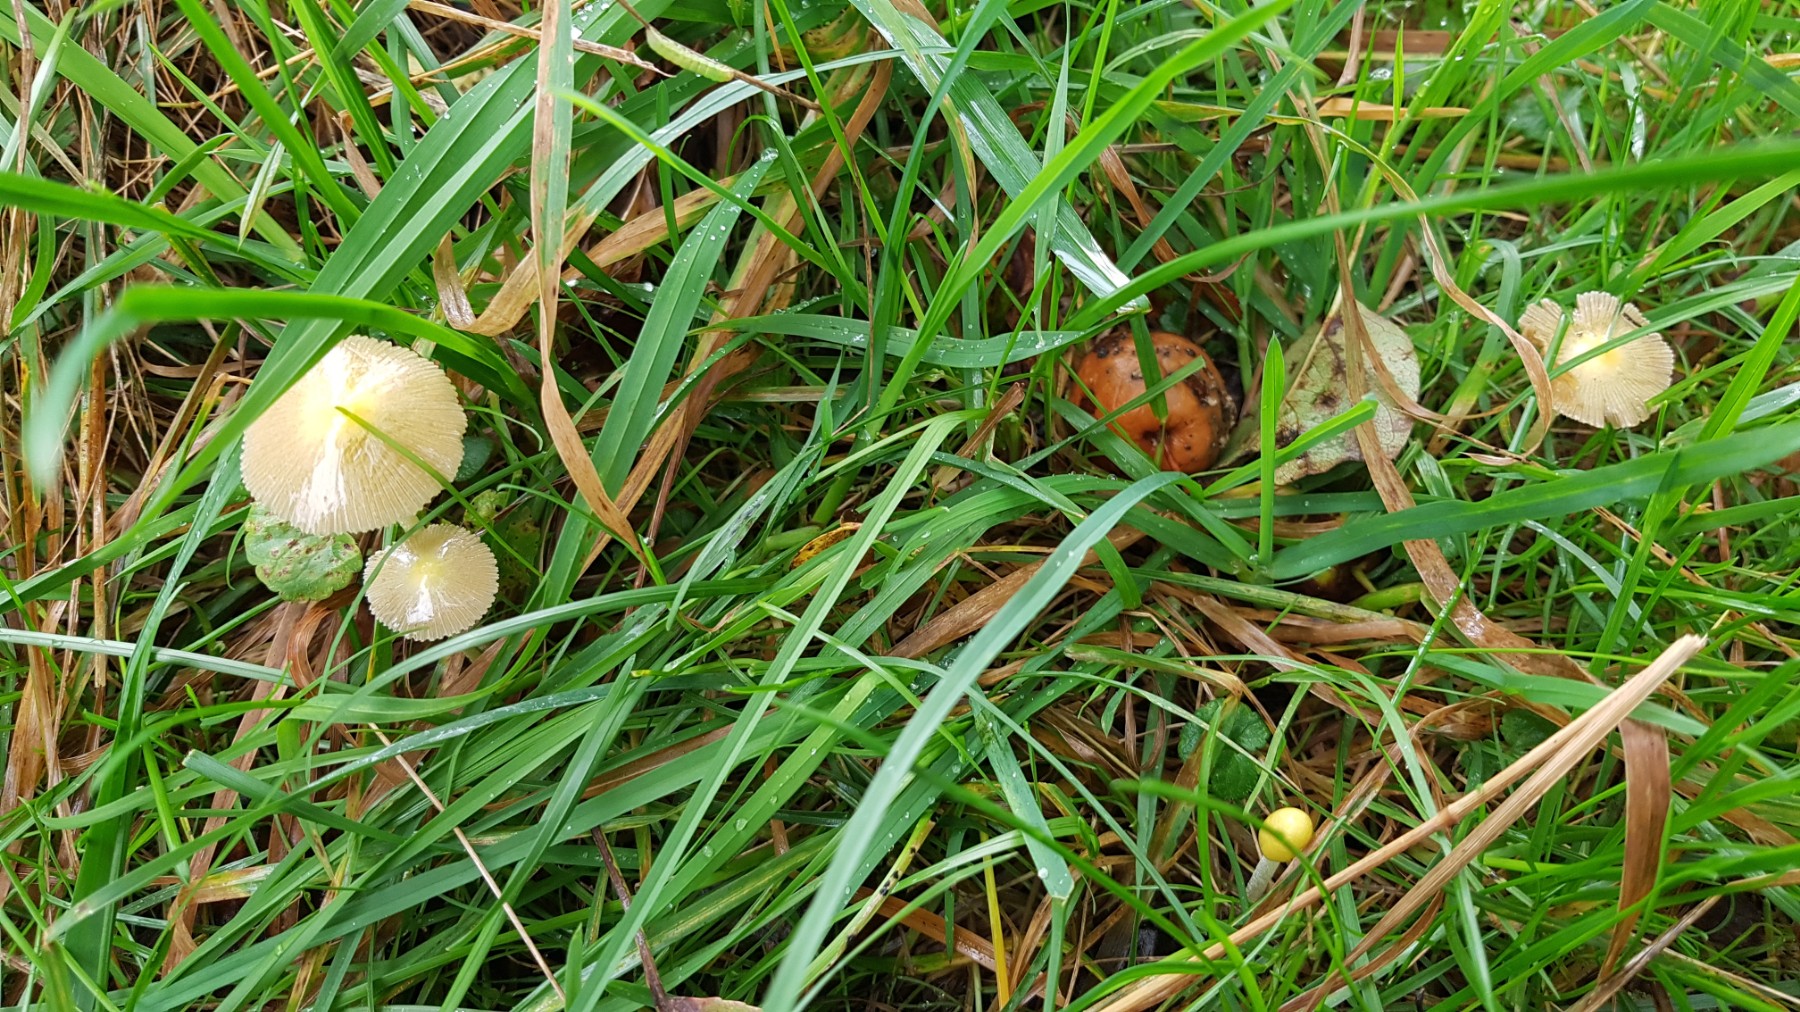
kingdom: Fungi
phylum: Basidiomycota
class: Agaricomycetes
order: Agaricales
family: Bolbitiaceae
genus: Bolbitius
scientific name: Bolbitius titubans
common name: almindelig gulhat
